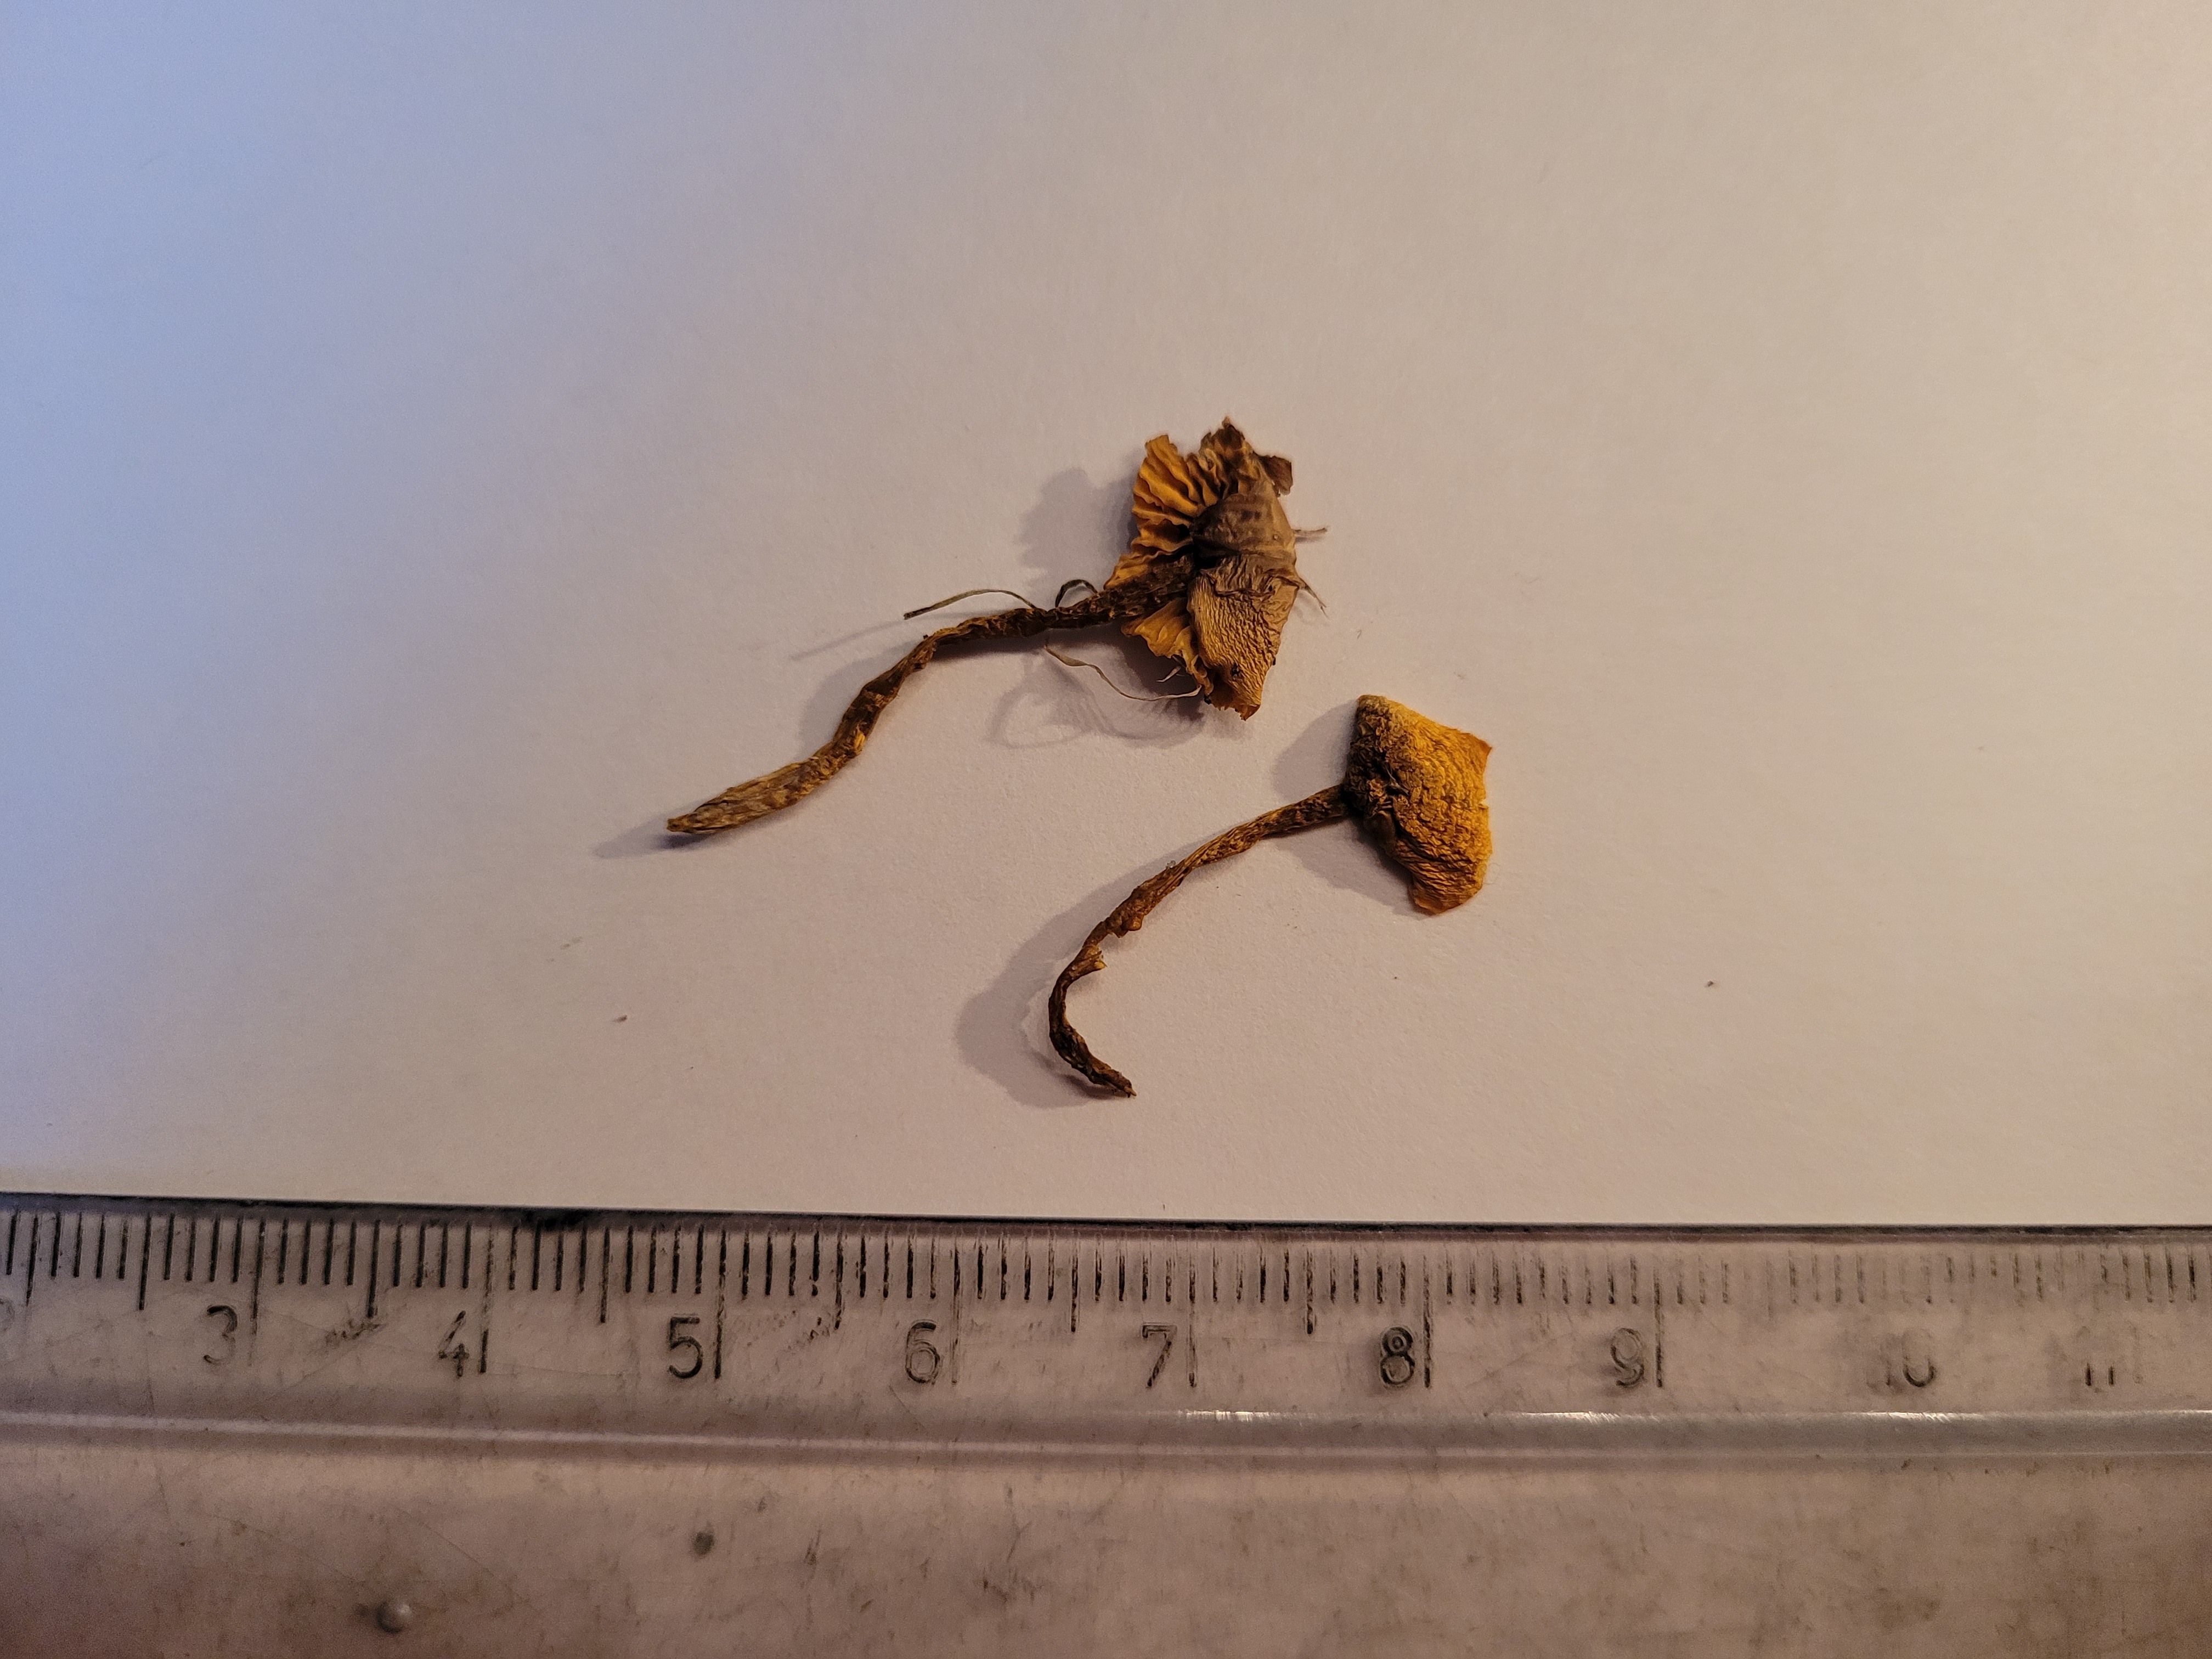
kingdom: Fungi
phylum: Basidiomycota
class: Agaricomycetes
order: Agaricales
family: Hygrophoraceae
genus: Hygrocybe
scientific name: Hygrocybe ceracea
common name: Butter waxcap
